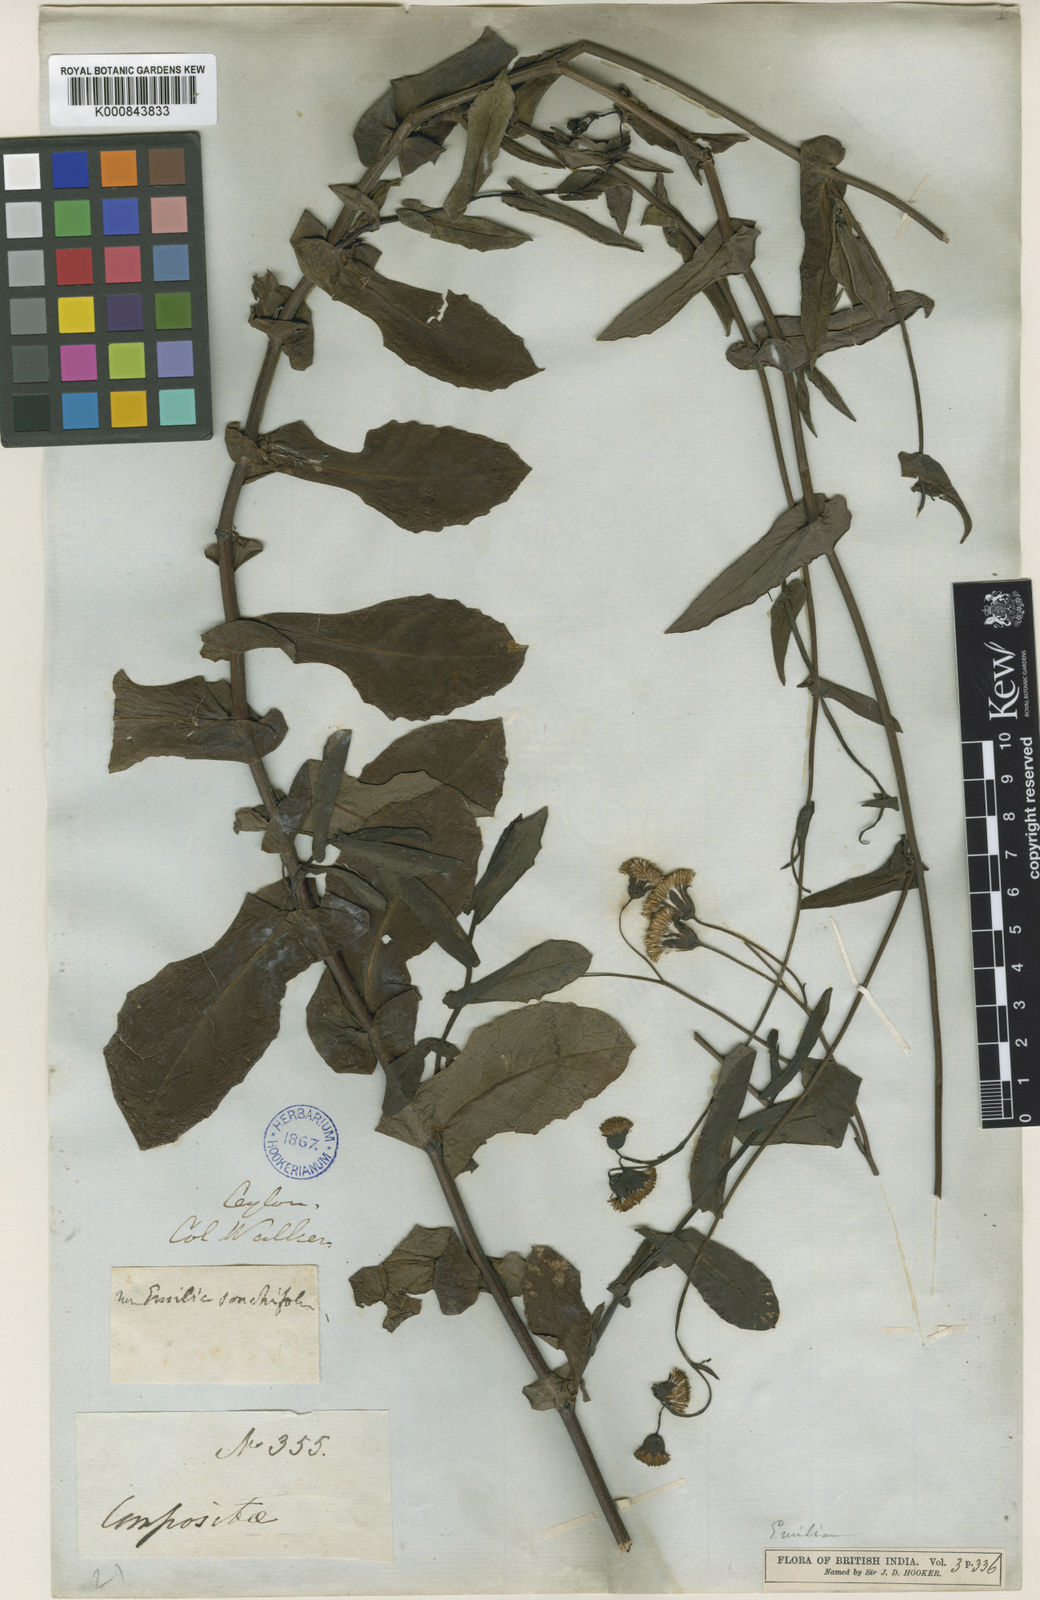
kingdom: Plantae
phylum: Tracheophyta
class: Magnoliopsida
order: Asterales
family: Asteraceae
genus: Emilia
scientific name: Emilia zeylanica
